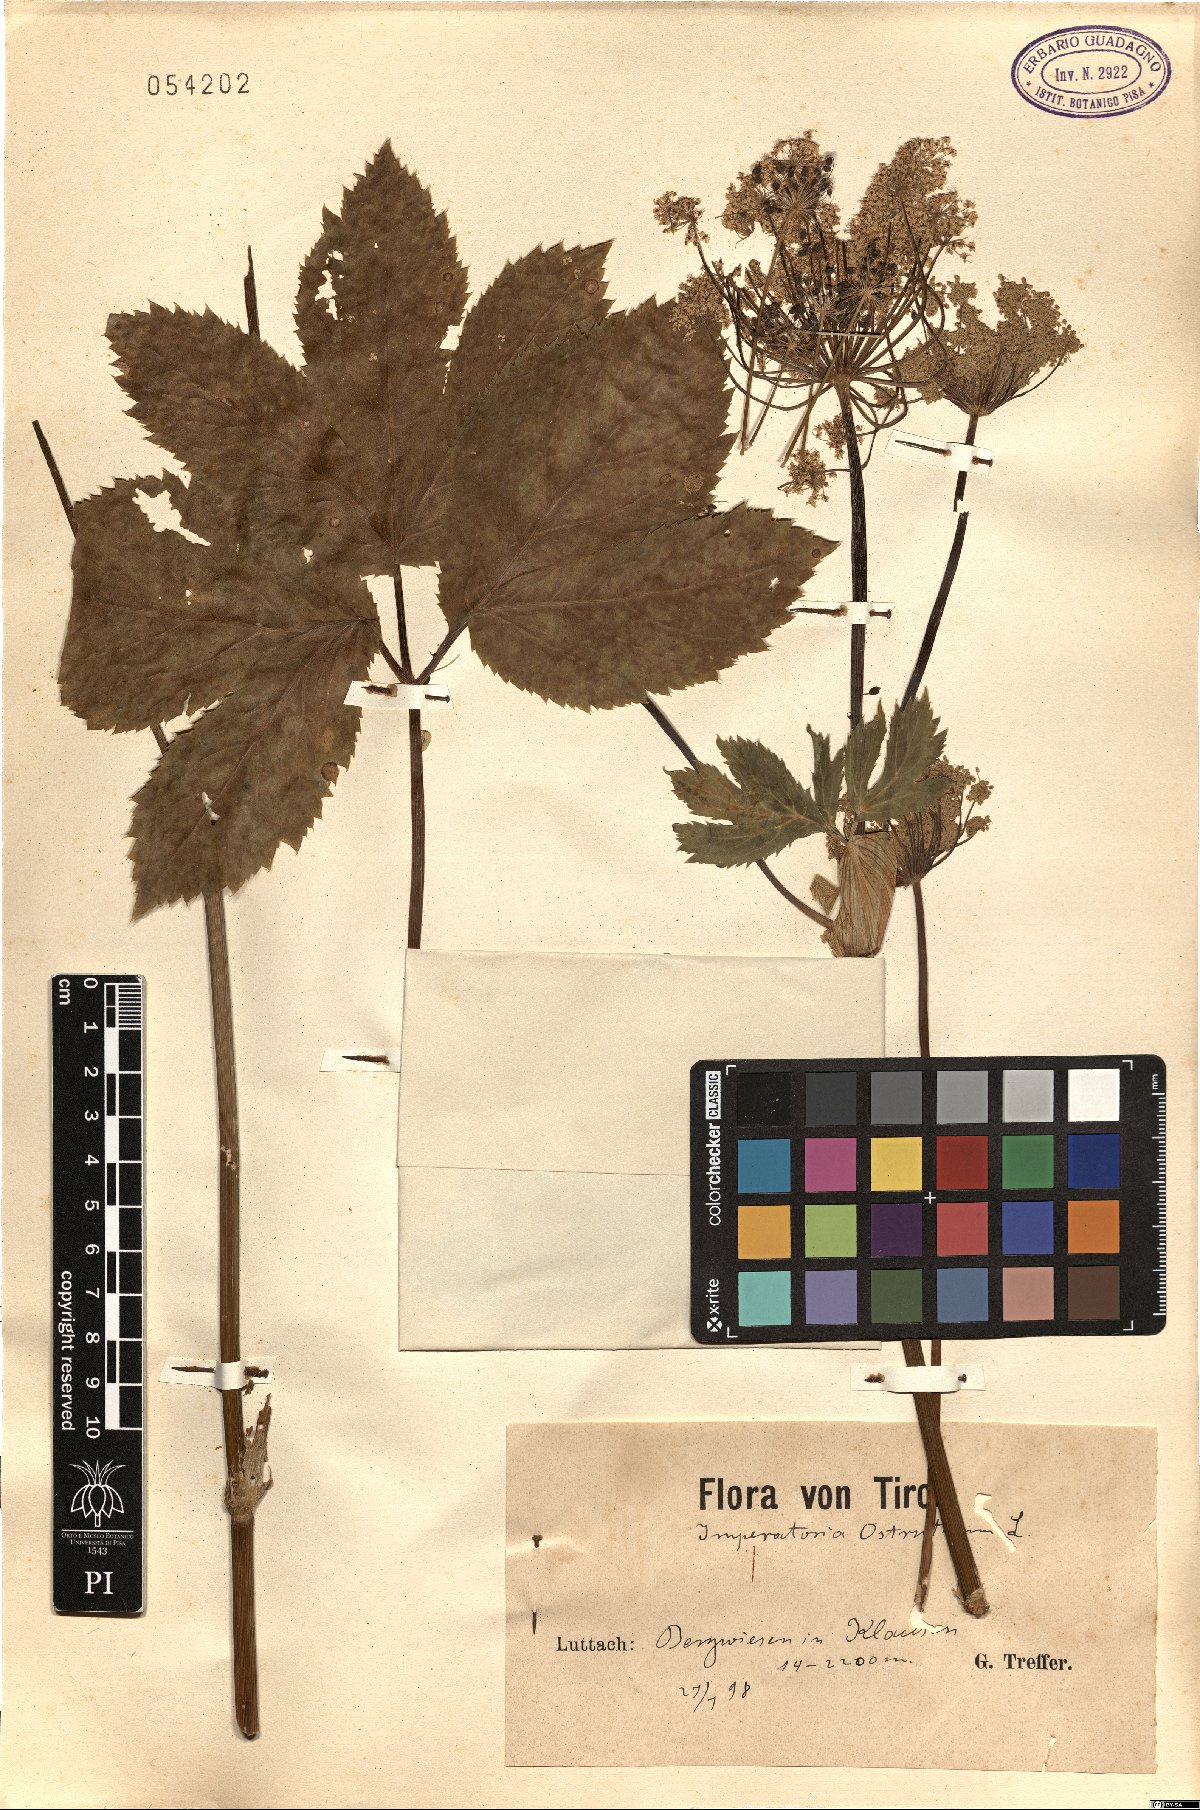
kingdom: Plantae
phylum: Tracheophyta
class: Magnoliopsida
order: Apiales
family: Apiaceae
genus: Imperatoria
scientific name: Imperatoria ostruthium
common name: Masterwort
